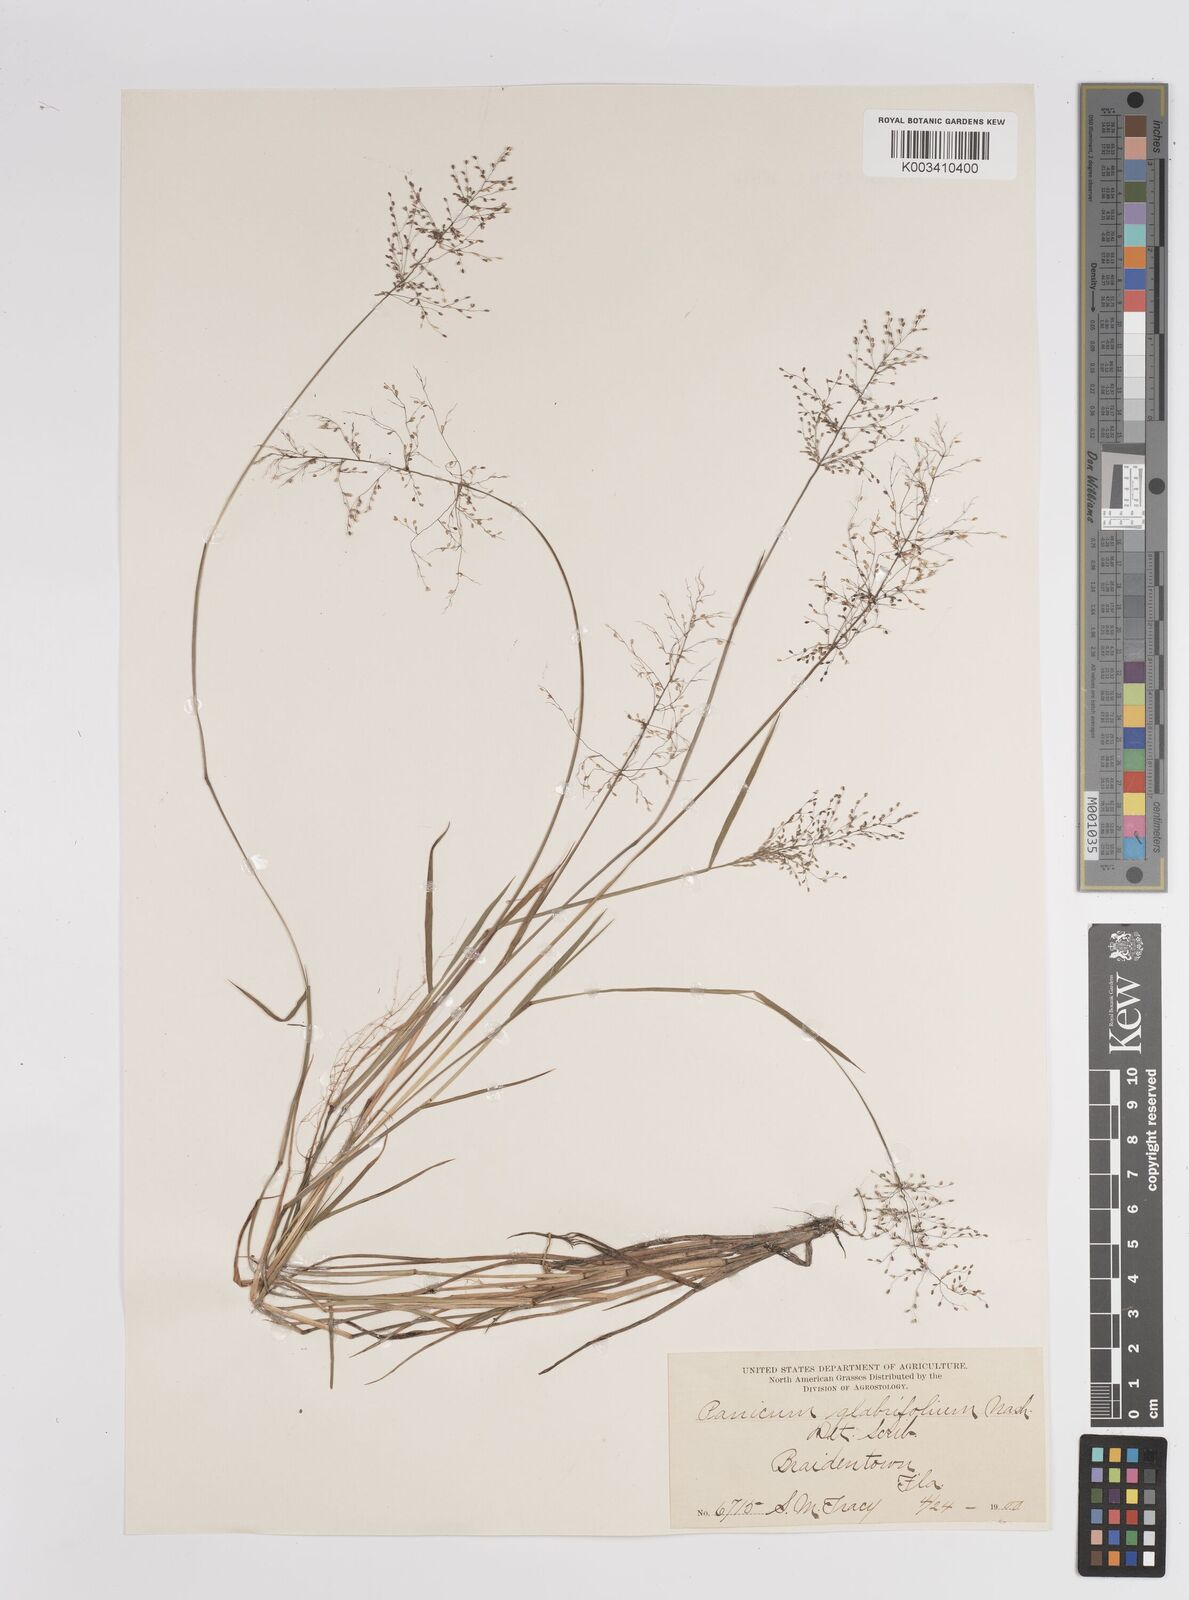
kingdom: Plantae
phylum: Tracheophyta
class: Liliopsida
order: Poales
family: Poaceae
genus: Dichanthelium
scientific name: Dichanthelium glabrifolium
